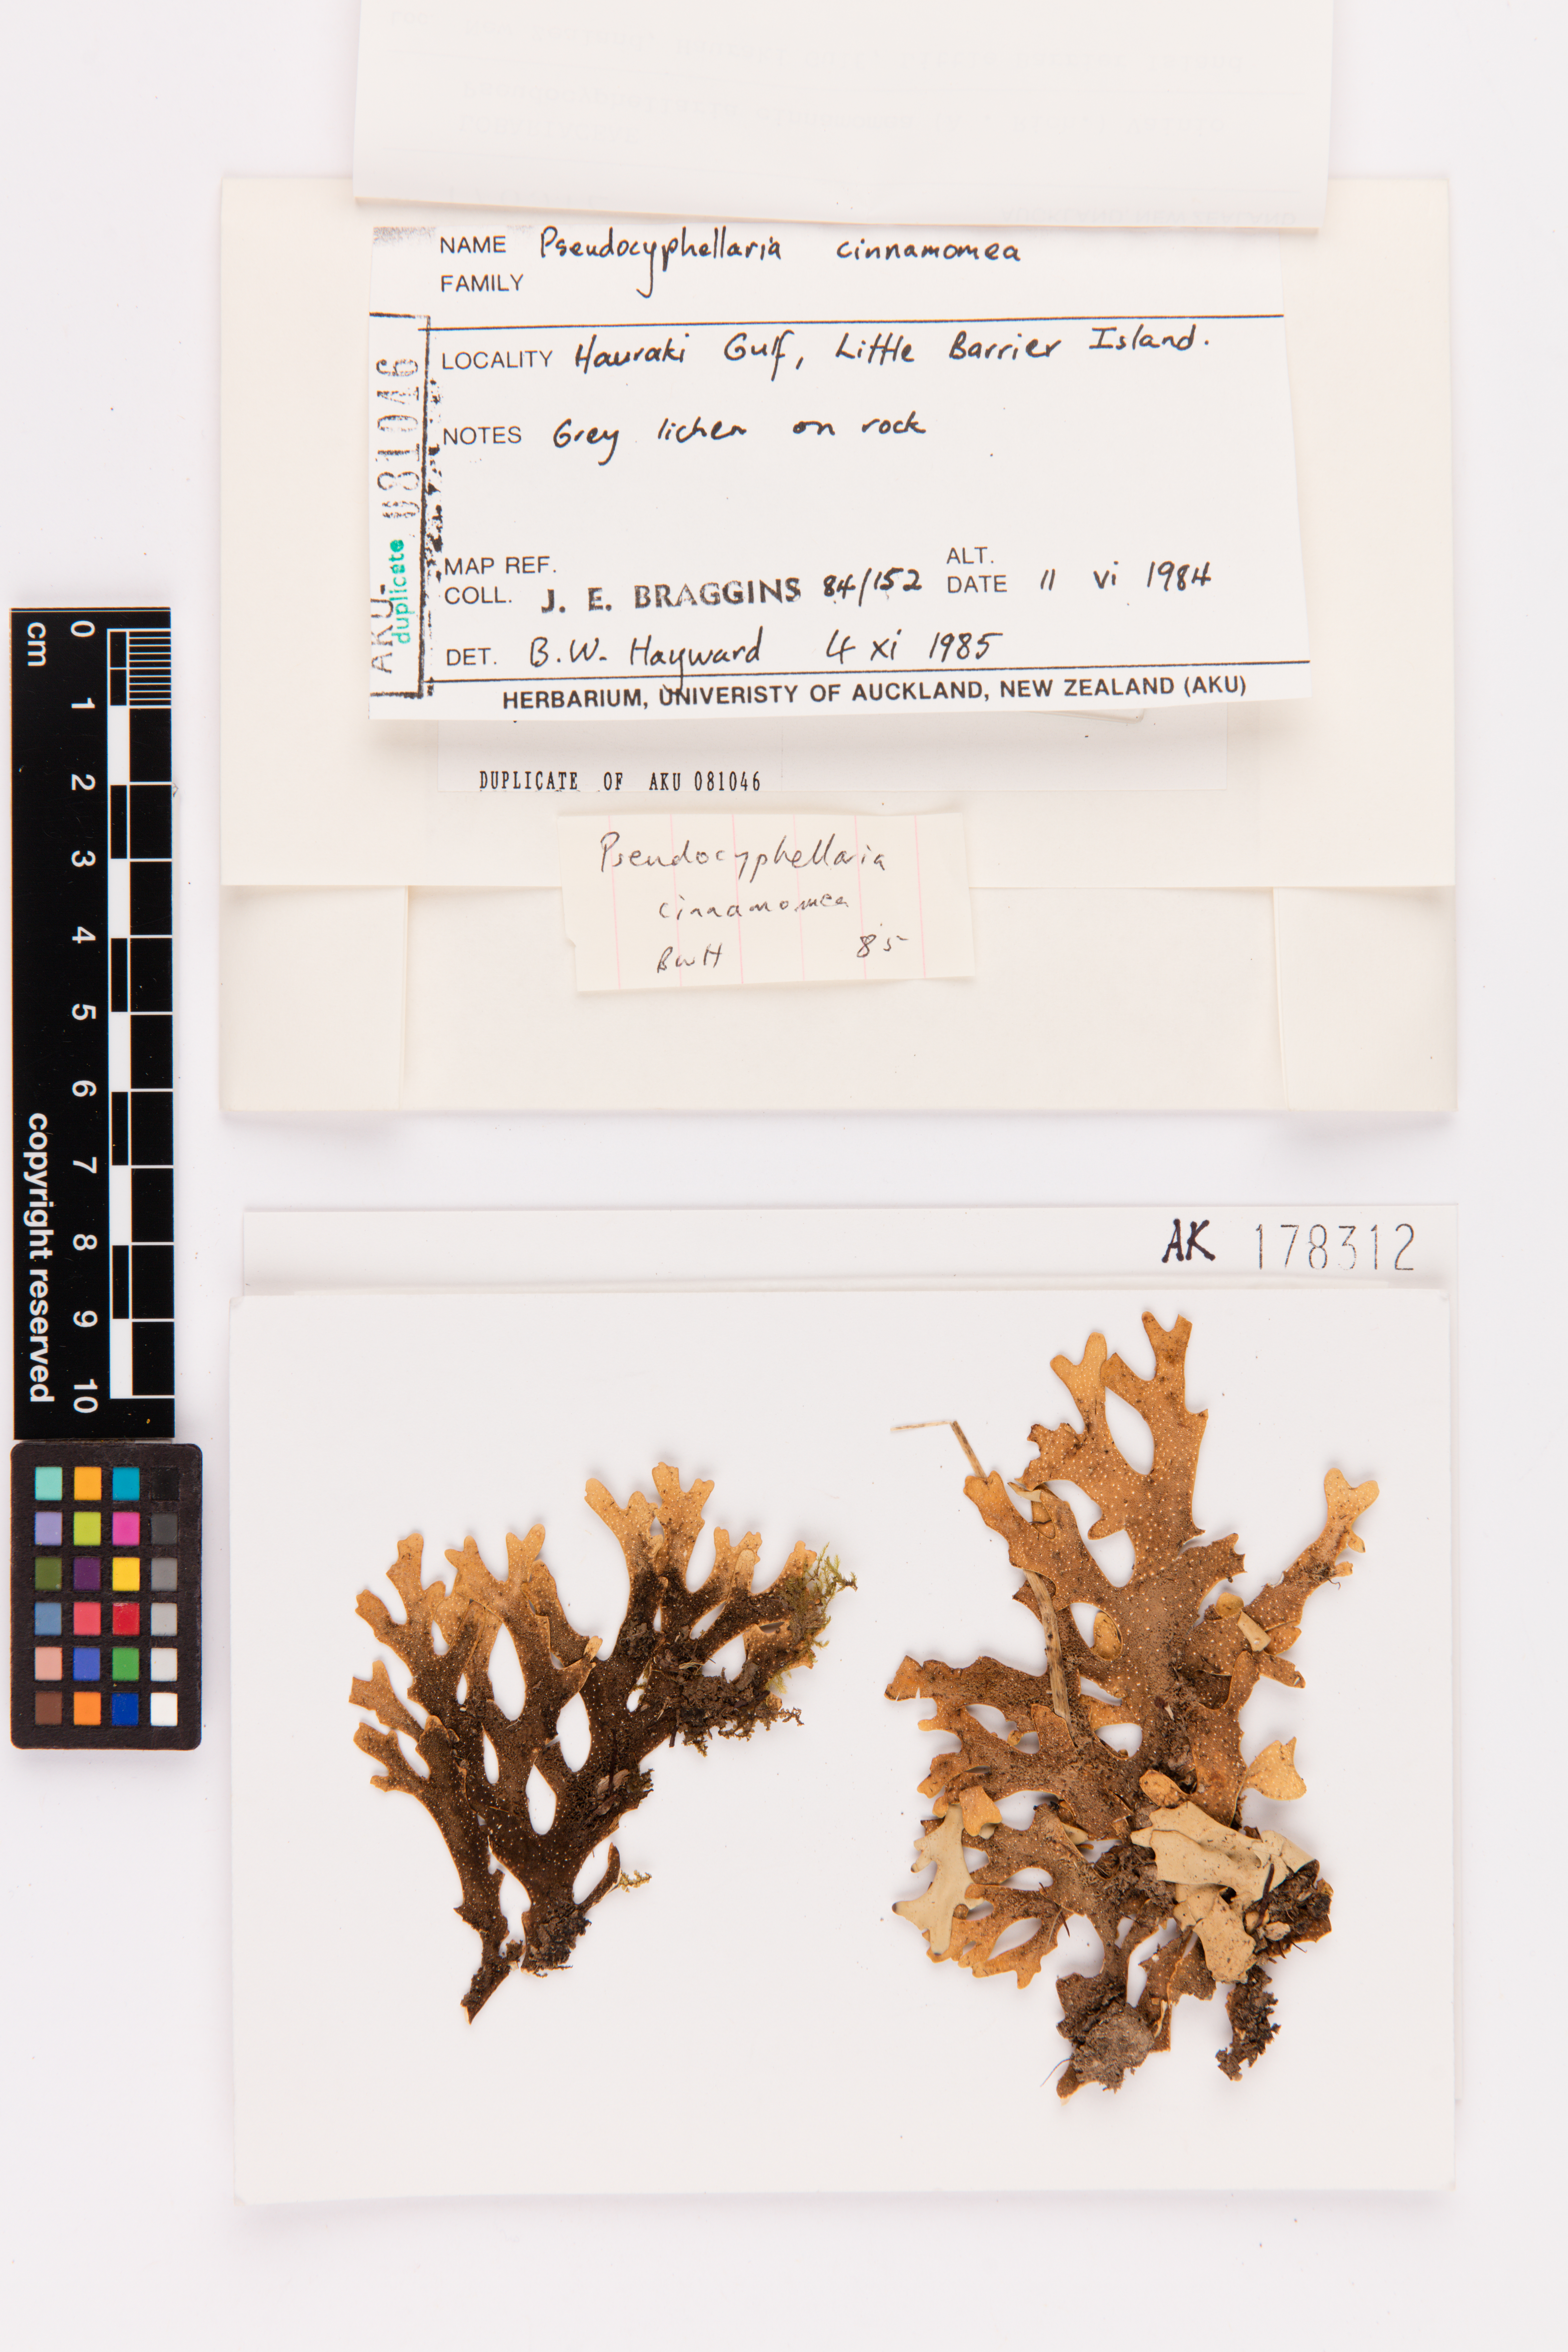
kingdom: Fungi
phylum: Ascomycota
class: Lecanoromycetes
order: Peltigerales
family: Lobariaceae
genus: Pseudocyphellaria
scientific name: Pseudocyphellaria cinnamomea
